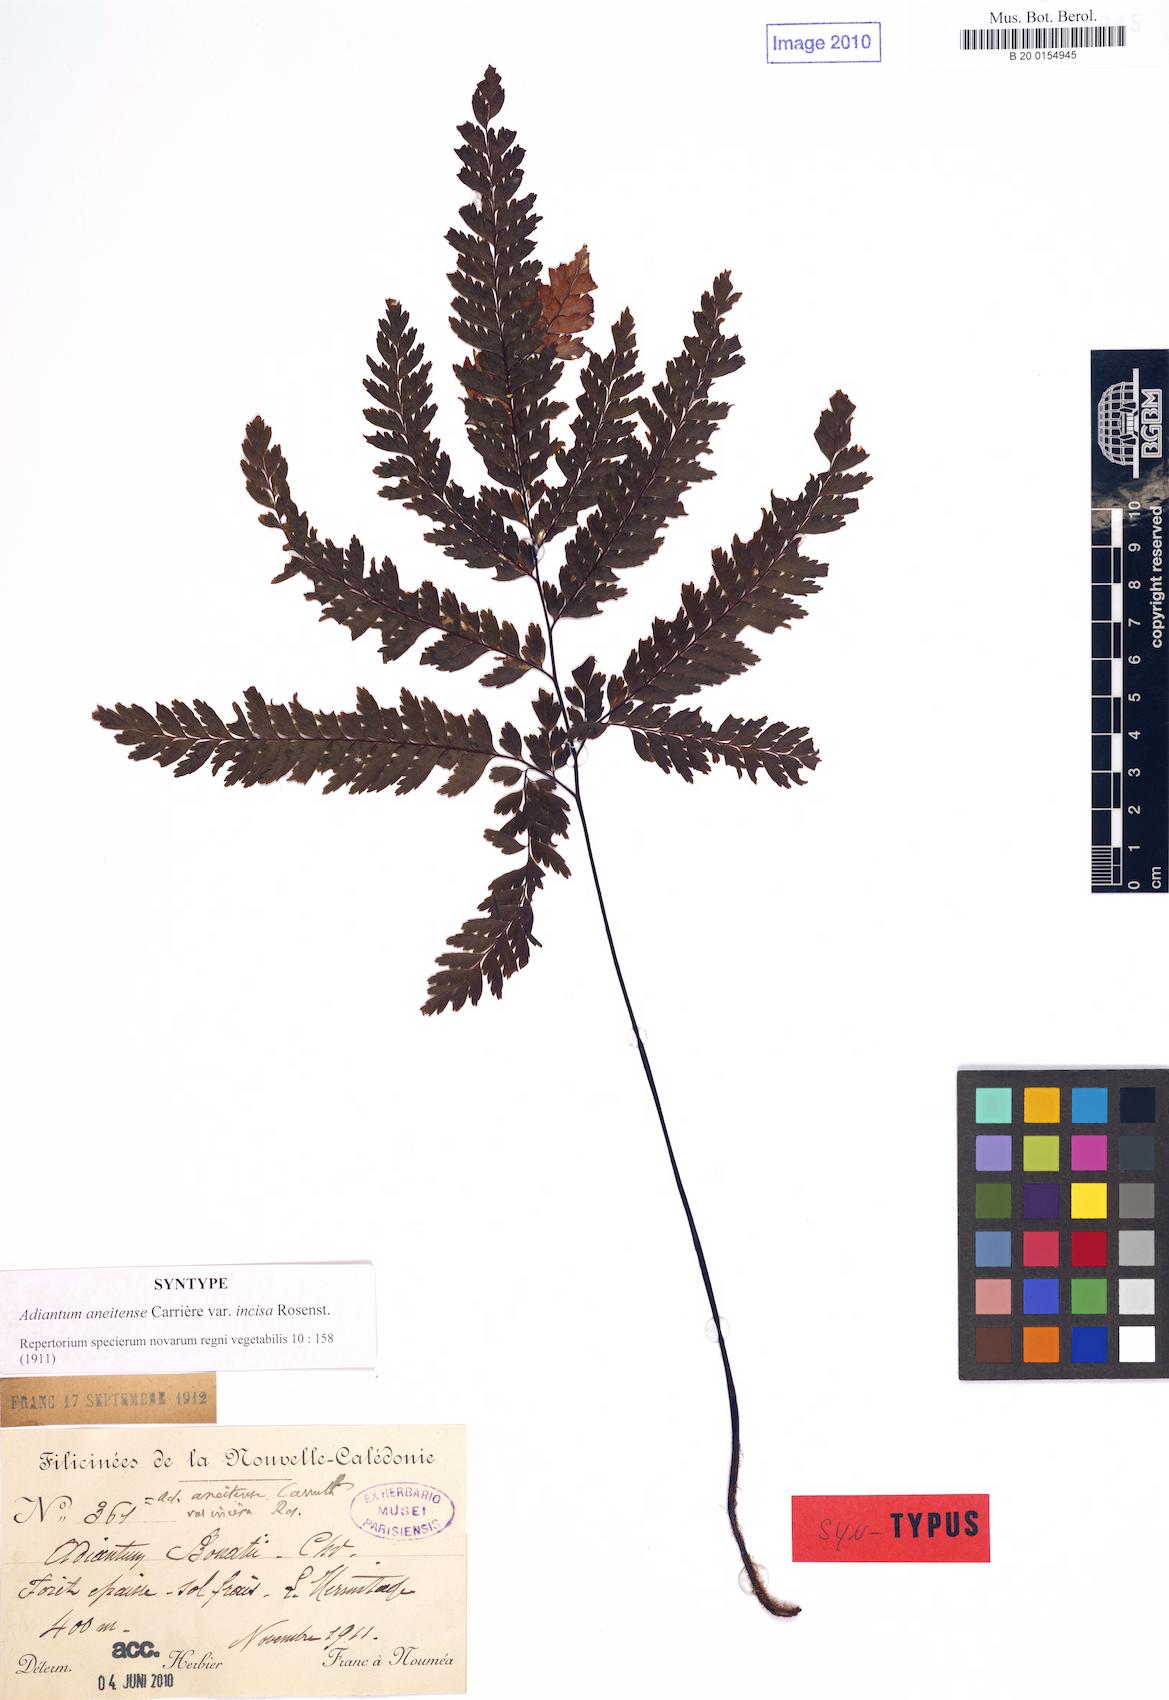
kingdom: Plantae
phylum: Tracheophyta
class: Polypodiopsida
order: Polypodiales
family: Pteridaceae
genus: Adiantum
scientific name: Adiantum novae-caledoniae
